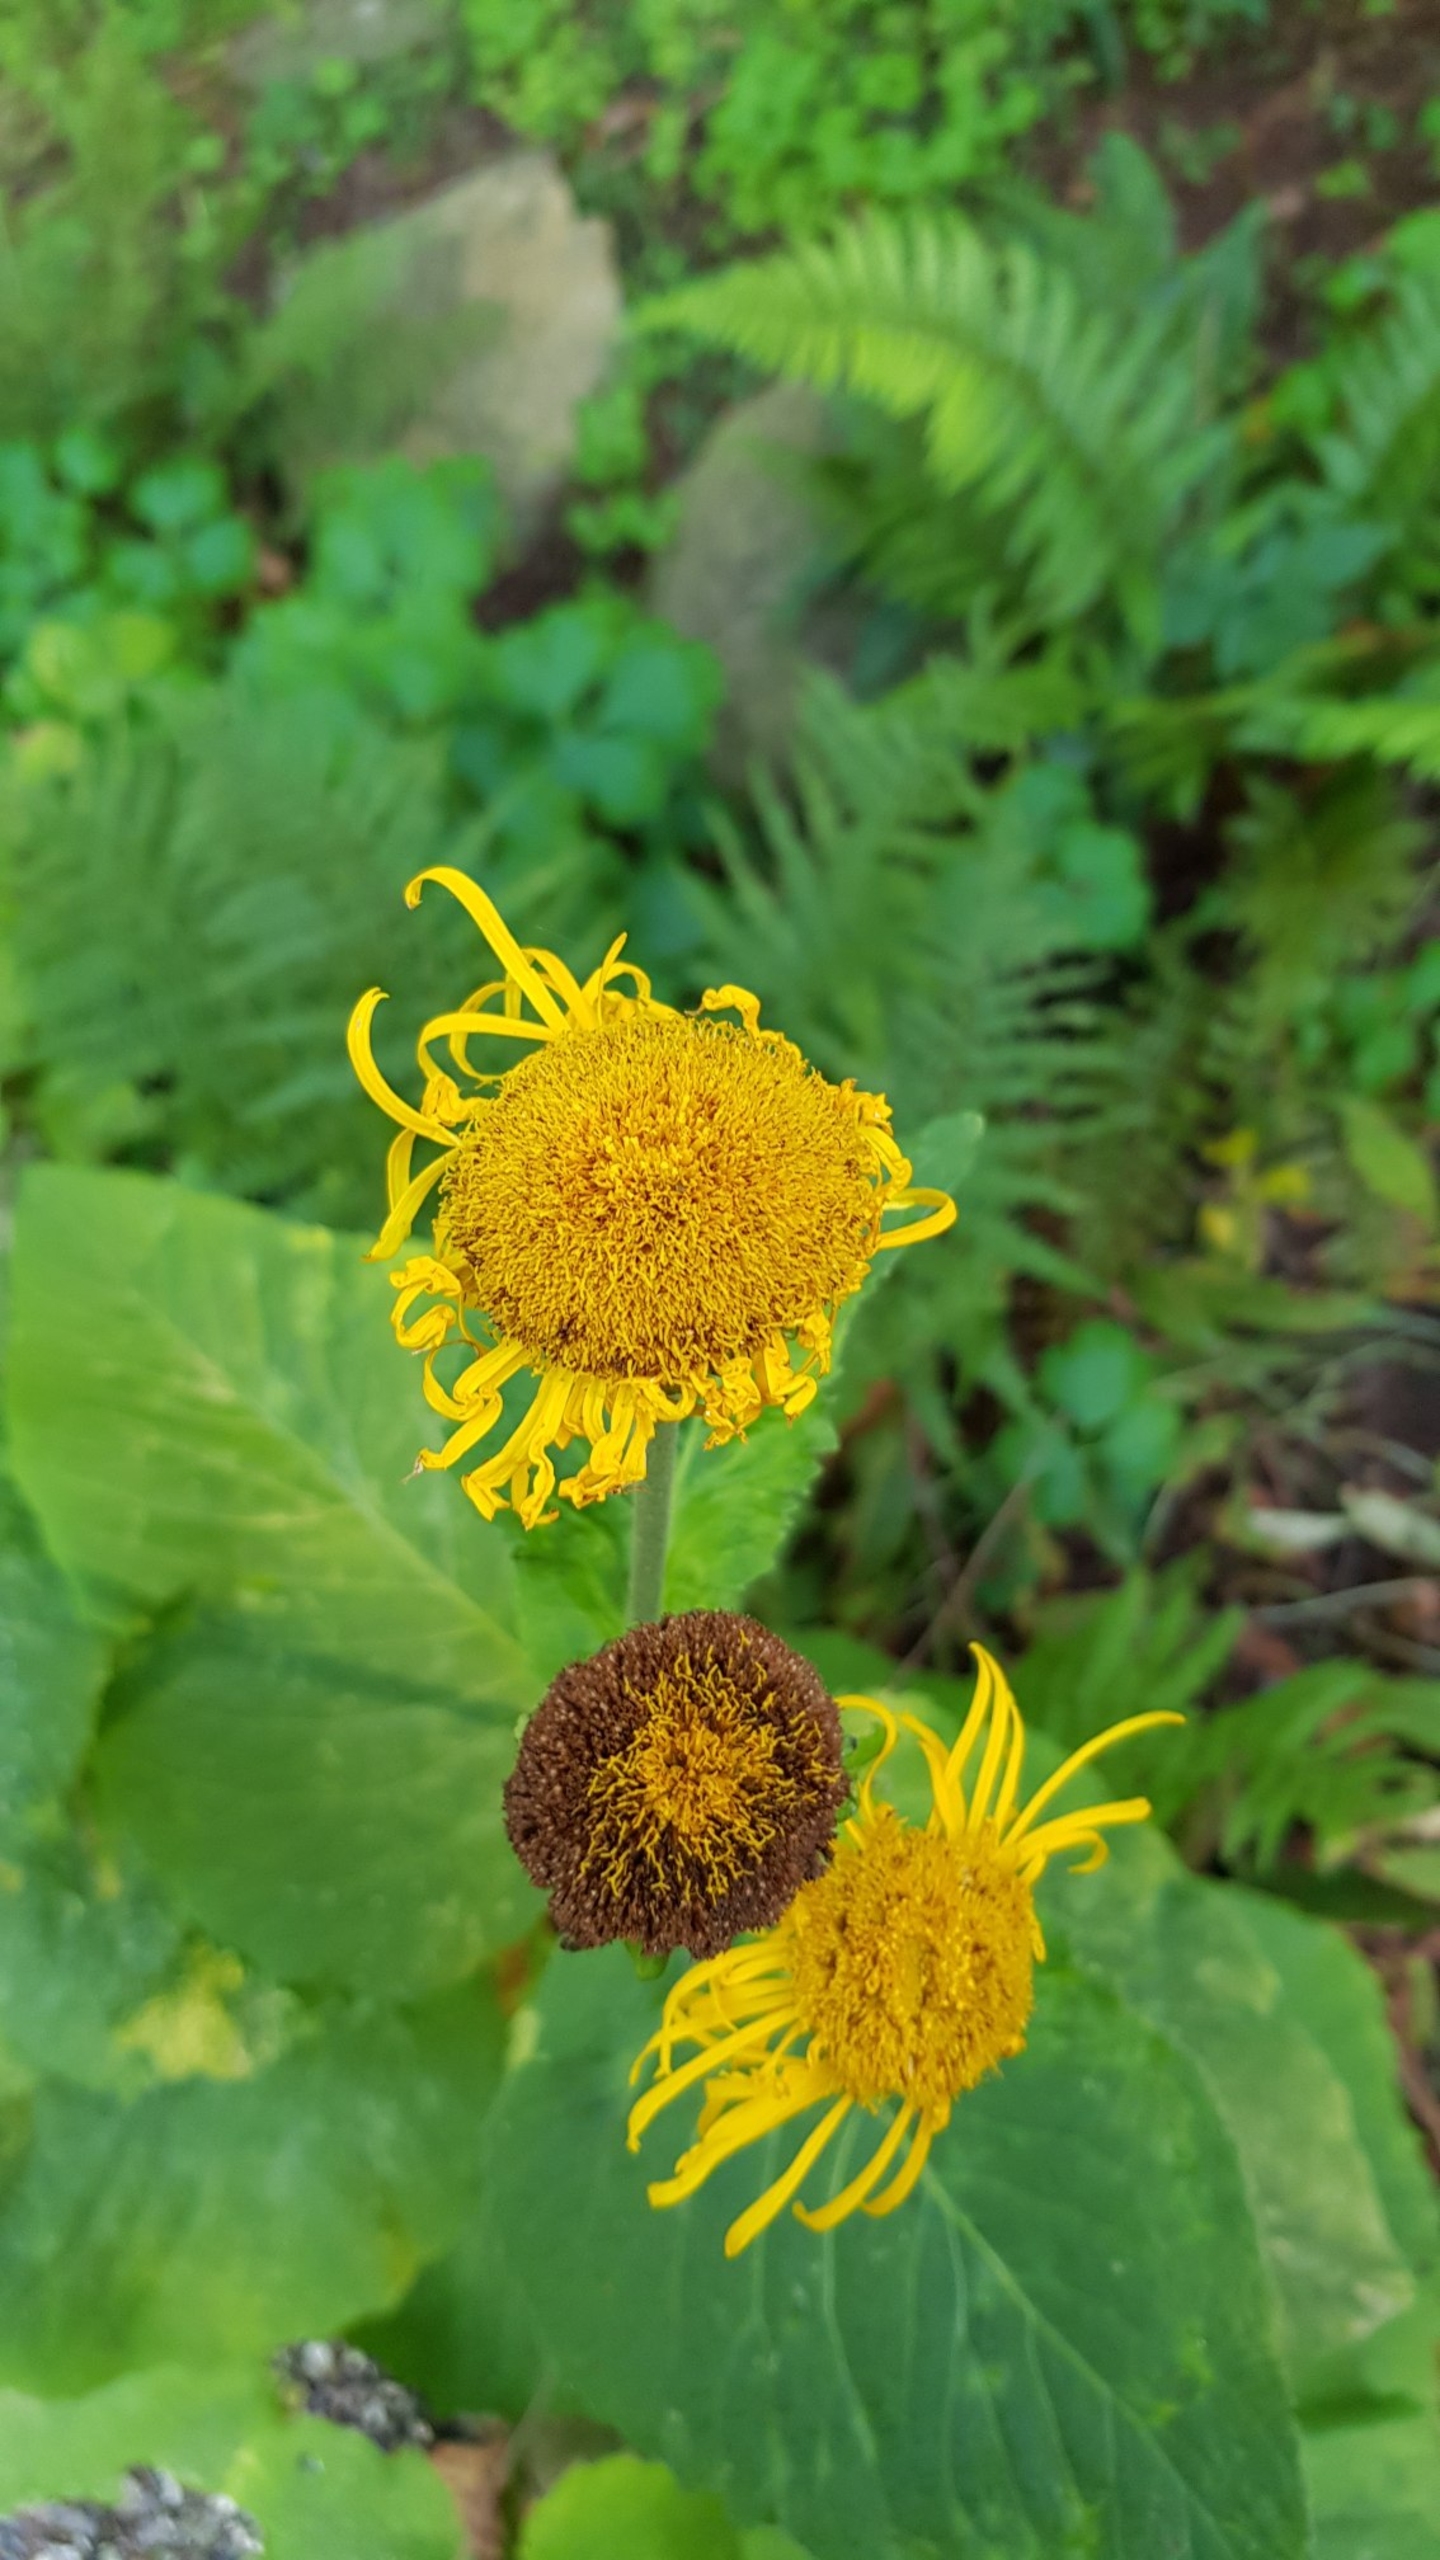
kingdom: Plantae
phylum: Tracheophyta
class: Magnoliopsida
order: Asterales
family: Asteraceae
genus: Pulicaria
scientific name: Pulicaria dysenterica
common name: Strand-loppeurt
